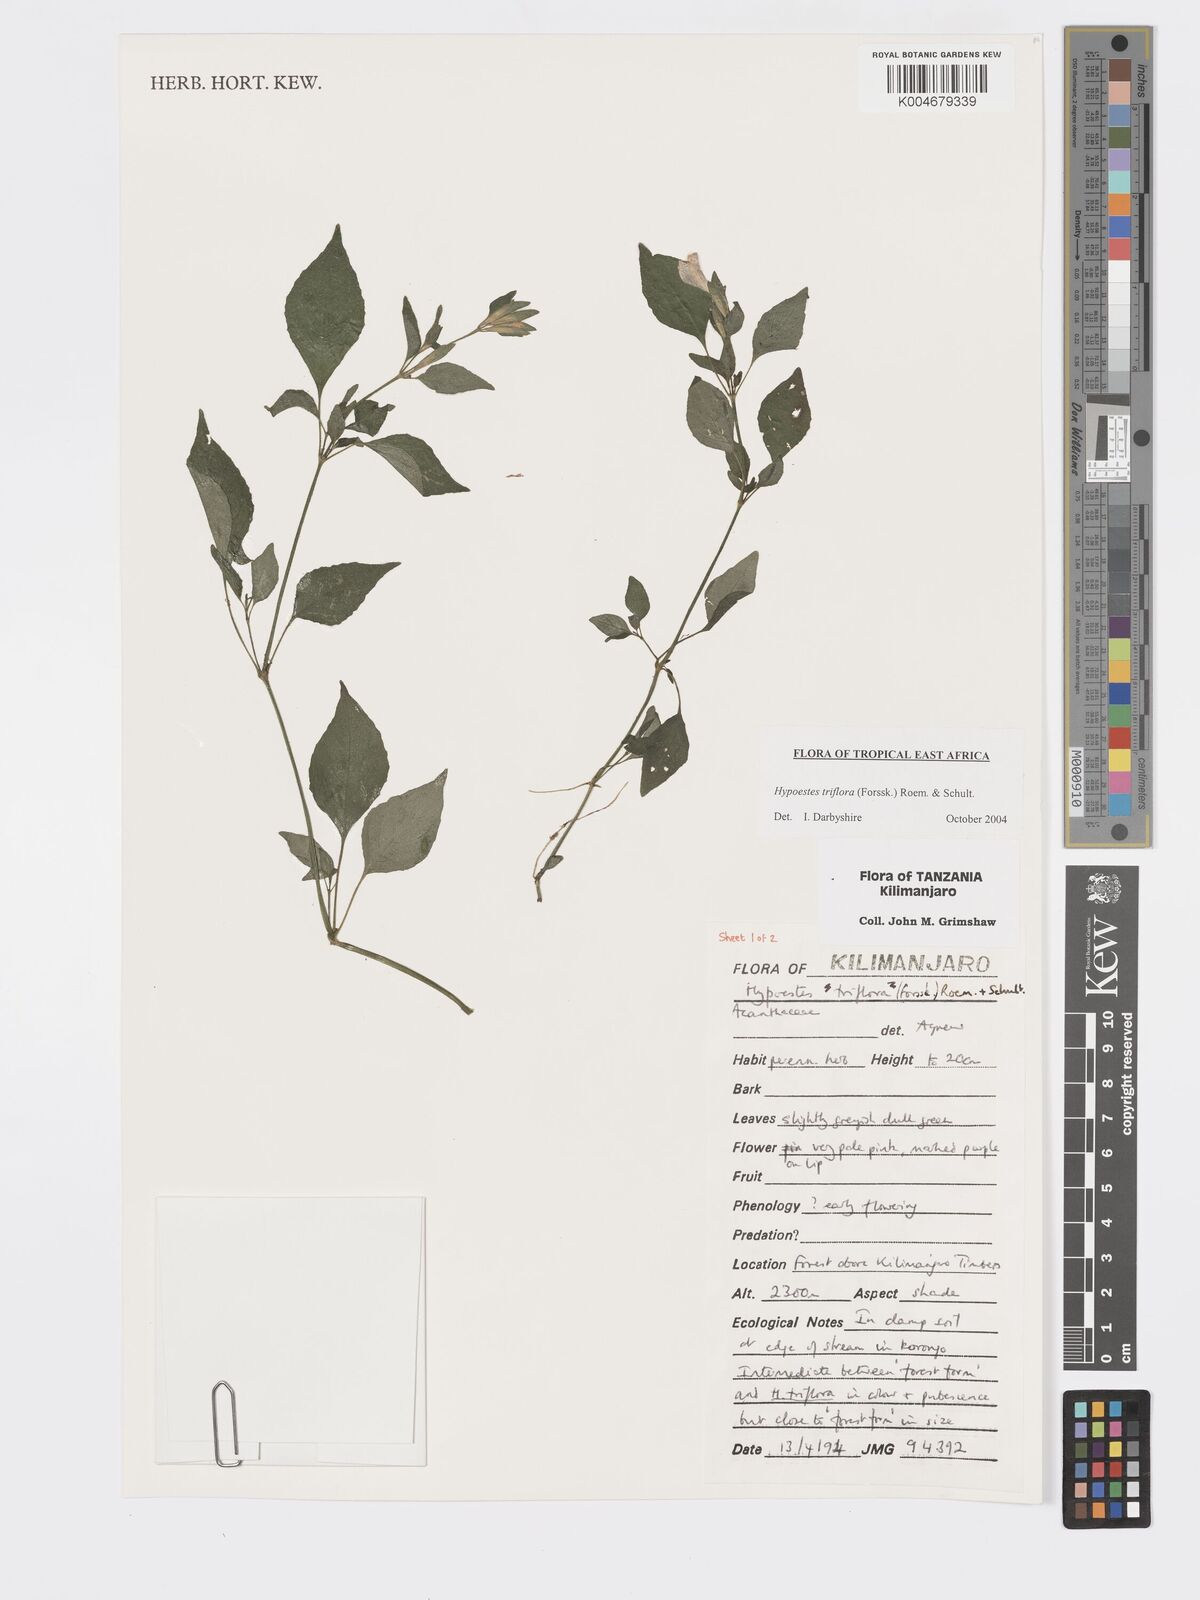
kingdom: Plantae
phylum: Tracheophyta
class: Magnoliopsida
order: Lamiales
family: Acanthaceae
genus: Hypoestes
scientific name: Hypoestes triflora
